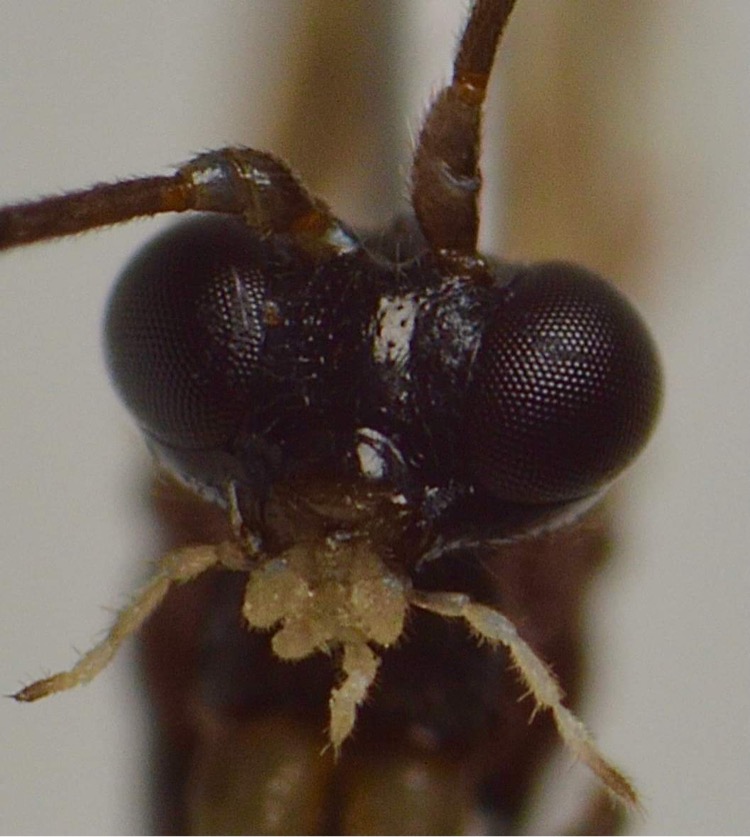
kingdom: Animalia
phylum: Arthropoda
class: Insecta
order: Hymenoptera
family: Ichneumonidae
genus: Zatypota
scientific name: Zatypota percontatoria
